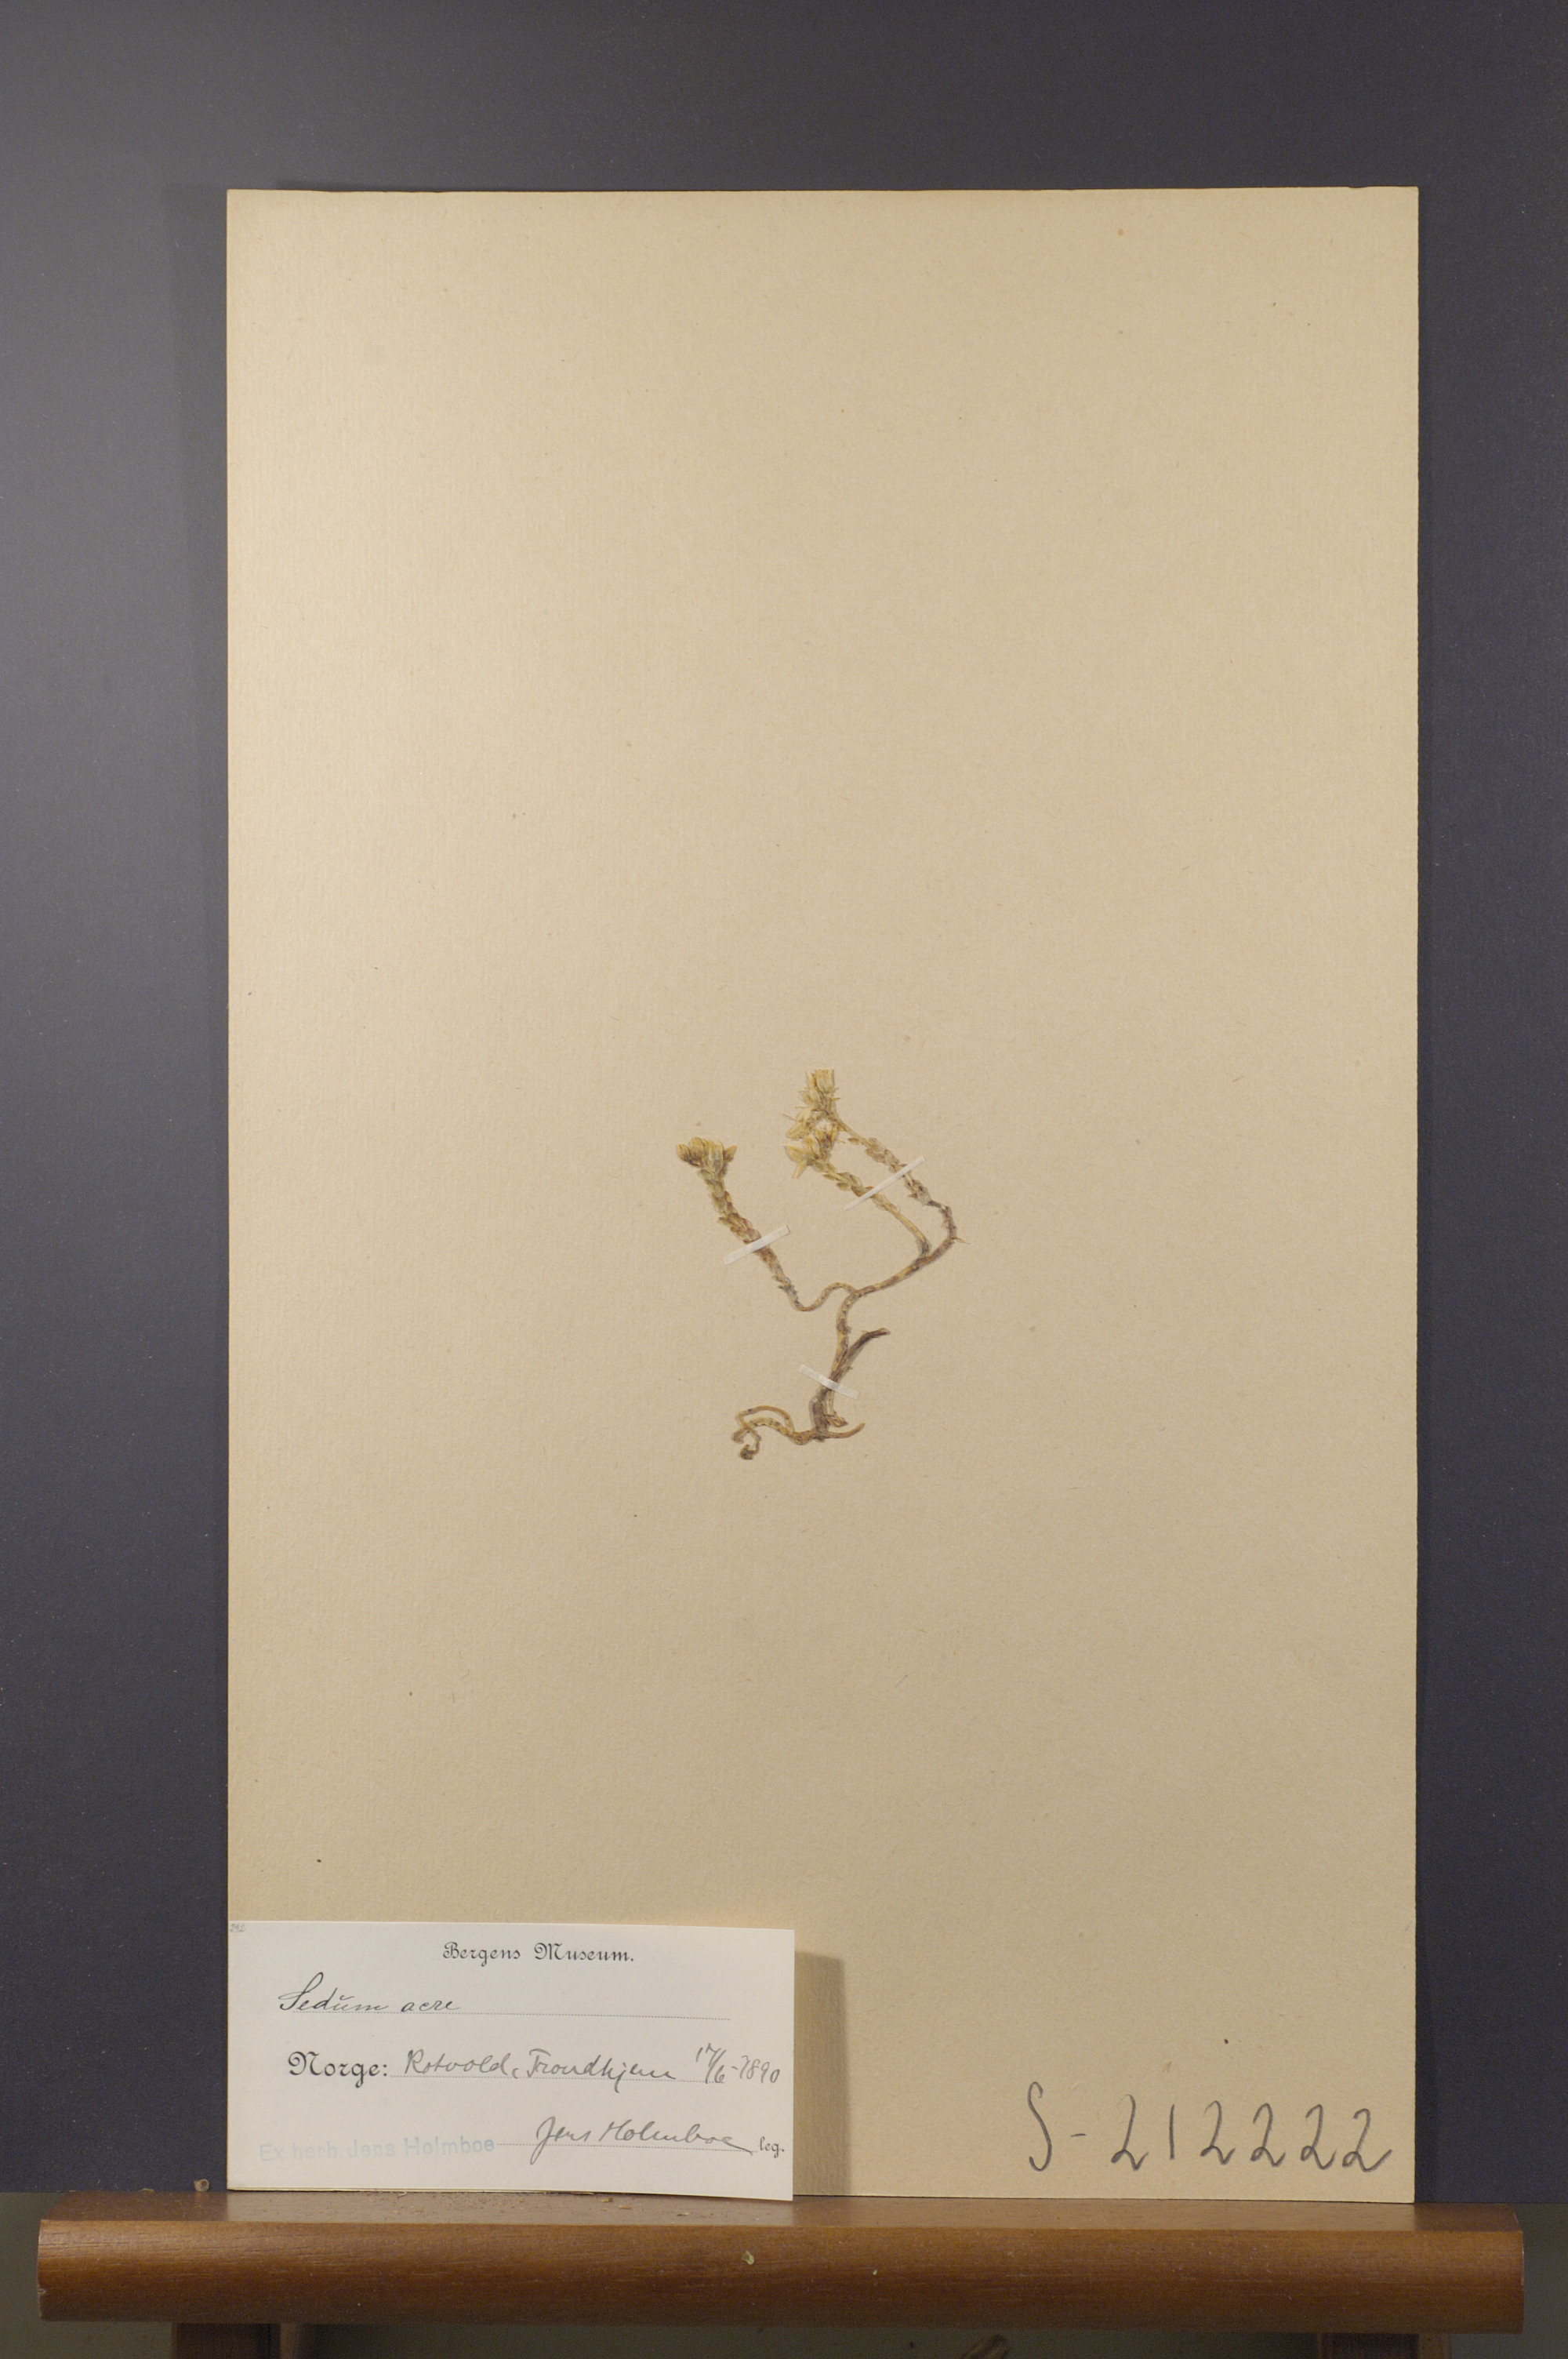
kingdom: Plantae
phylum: Tracheophyta
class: Magnoliopsida
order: Saxifragales
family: Crassulaceae
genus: Sedum
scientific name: Sedum acre
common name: Biting stonecrop
